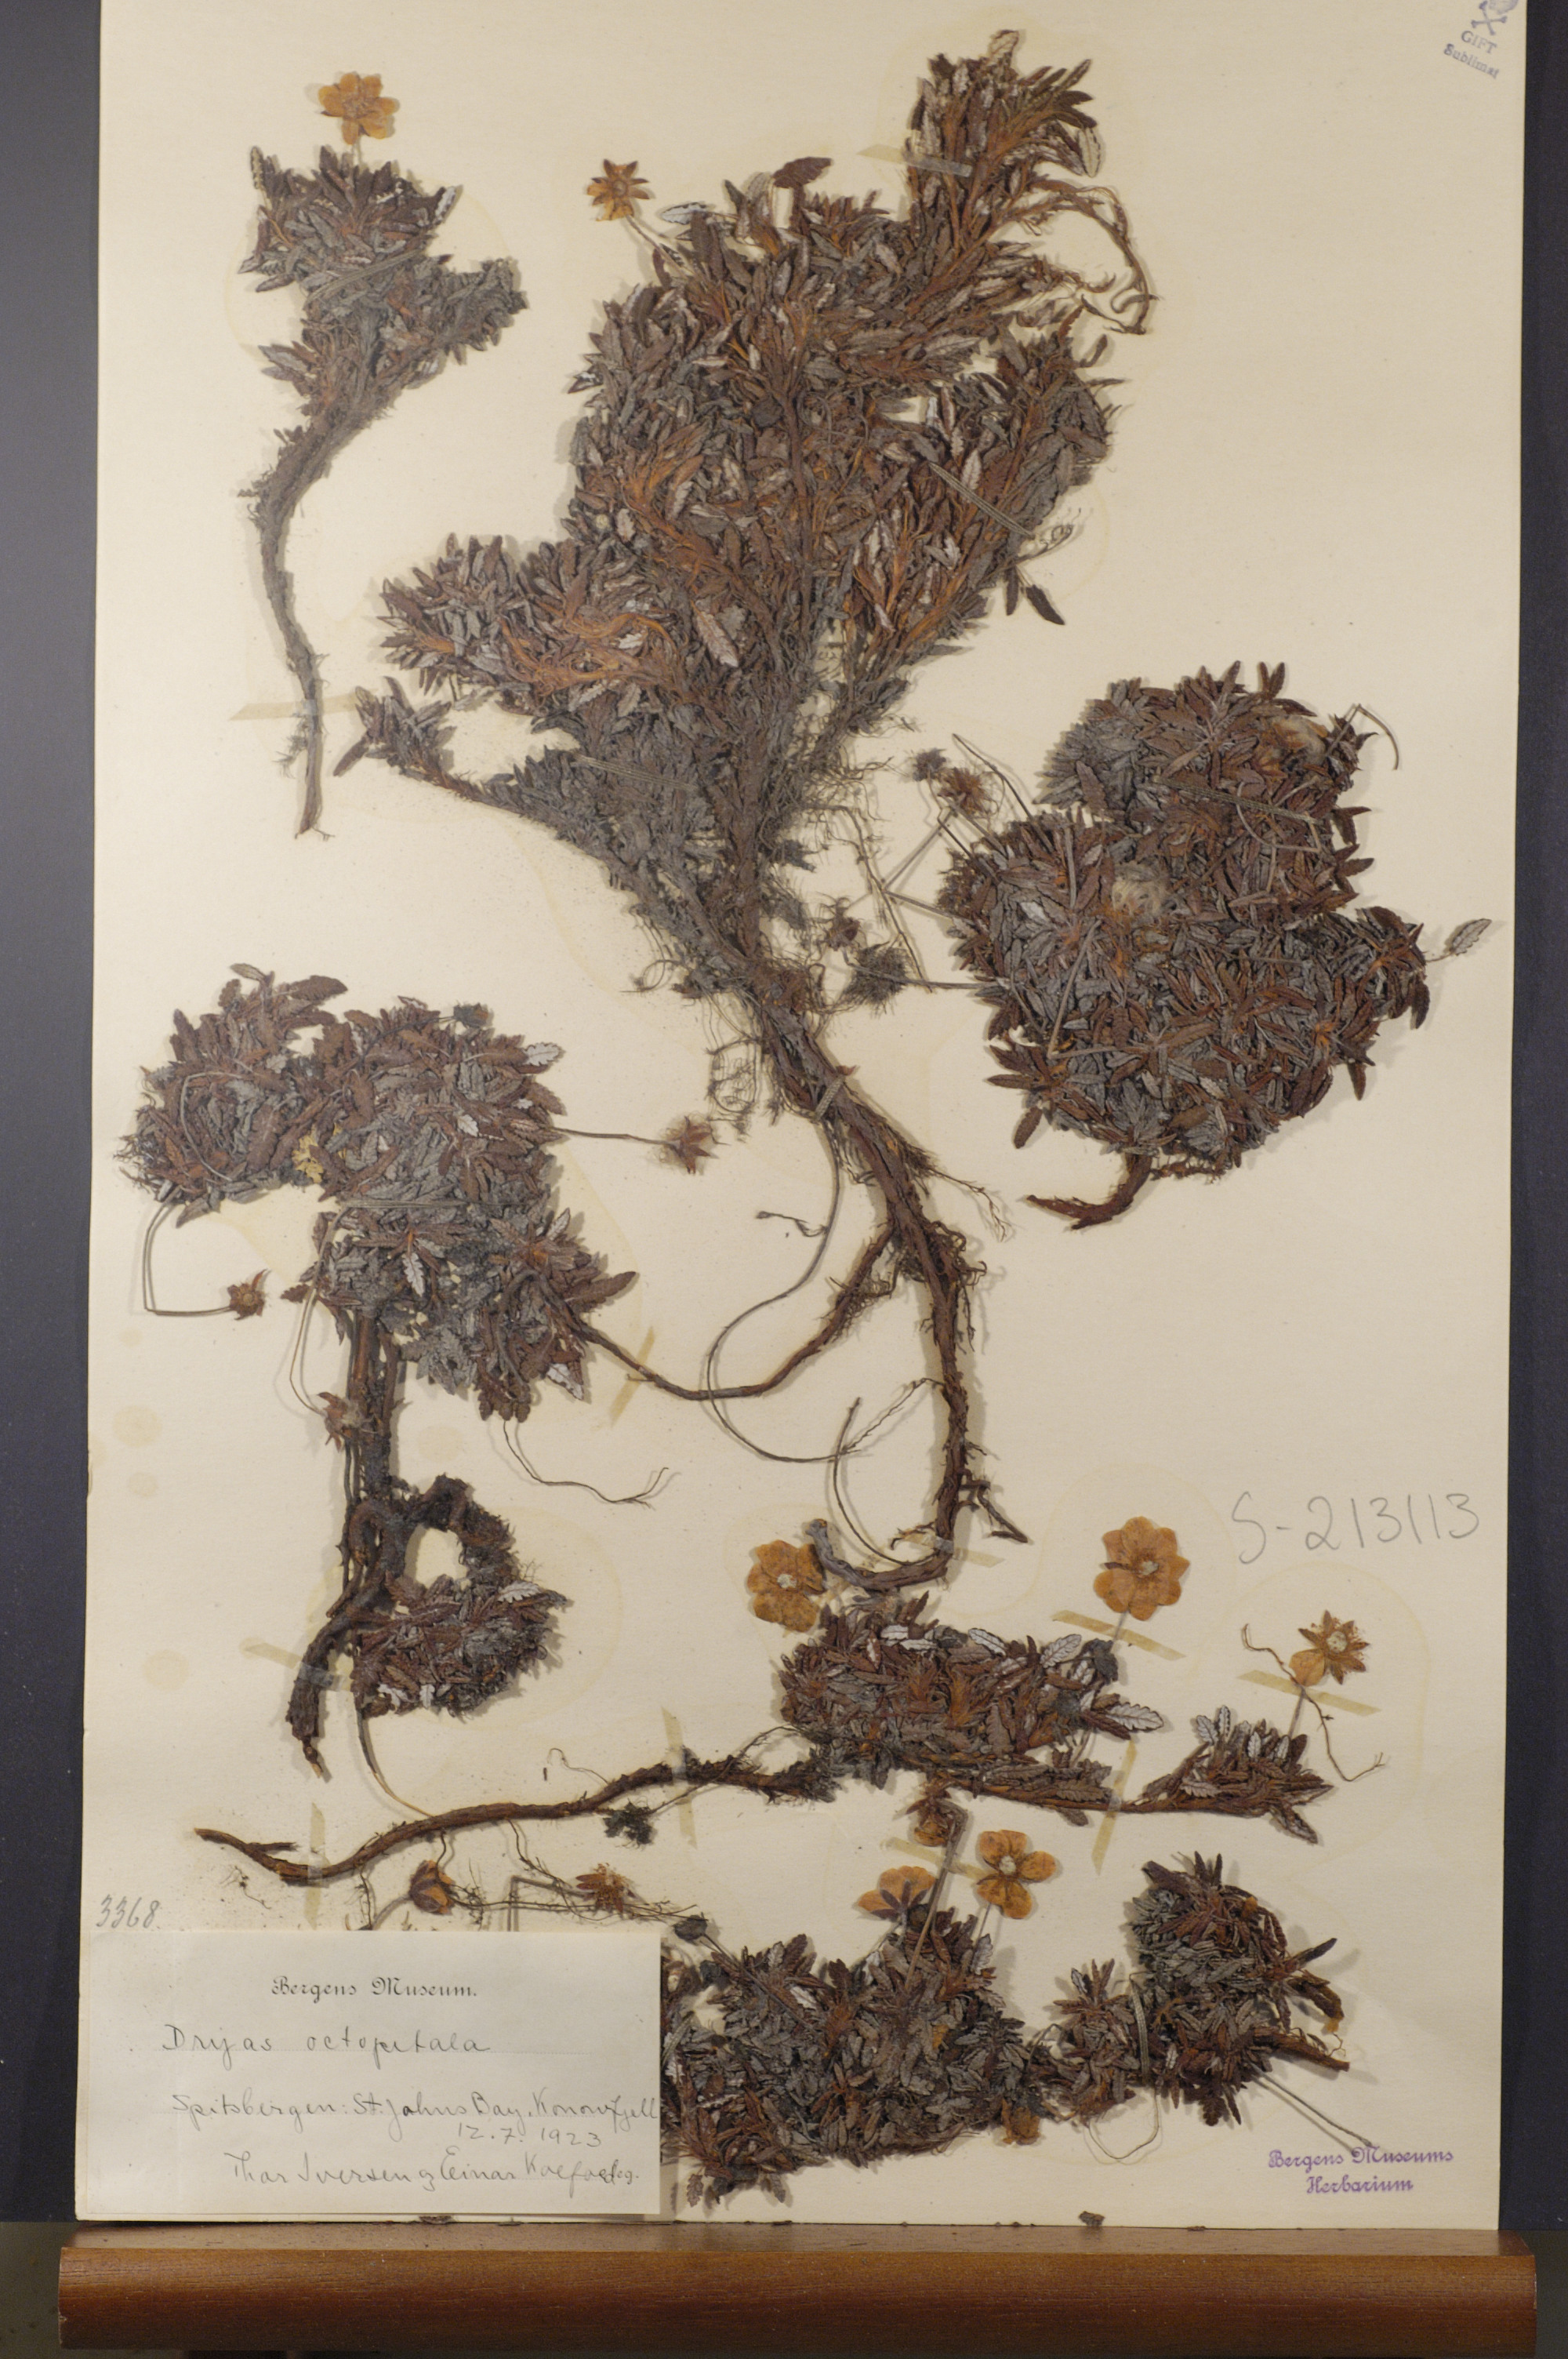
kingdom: Plantae
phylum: Tracheophyta
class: Magnoliopsida
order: Rosales
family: Rosaceae
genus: Dryas
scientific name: Dryas octopetala
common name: Eight-petal mountain-avens
